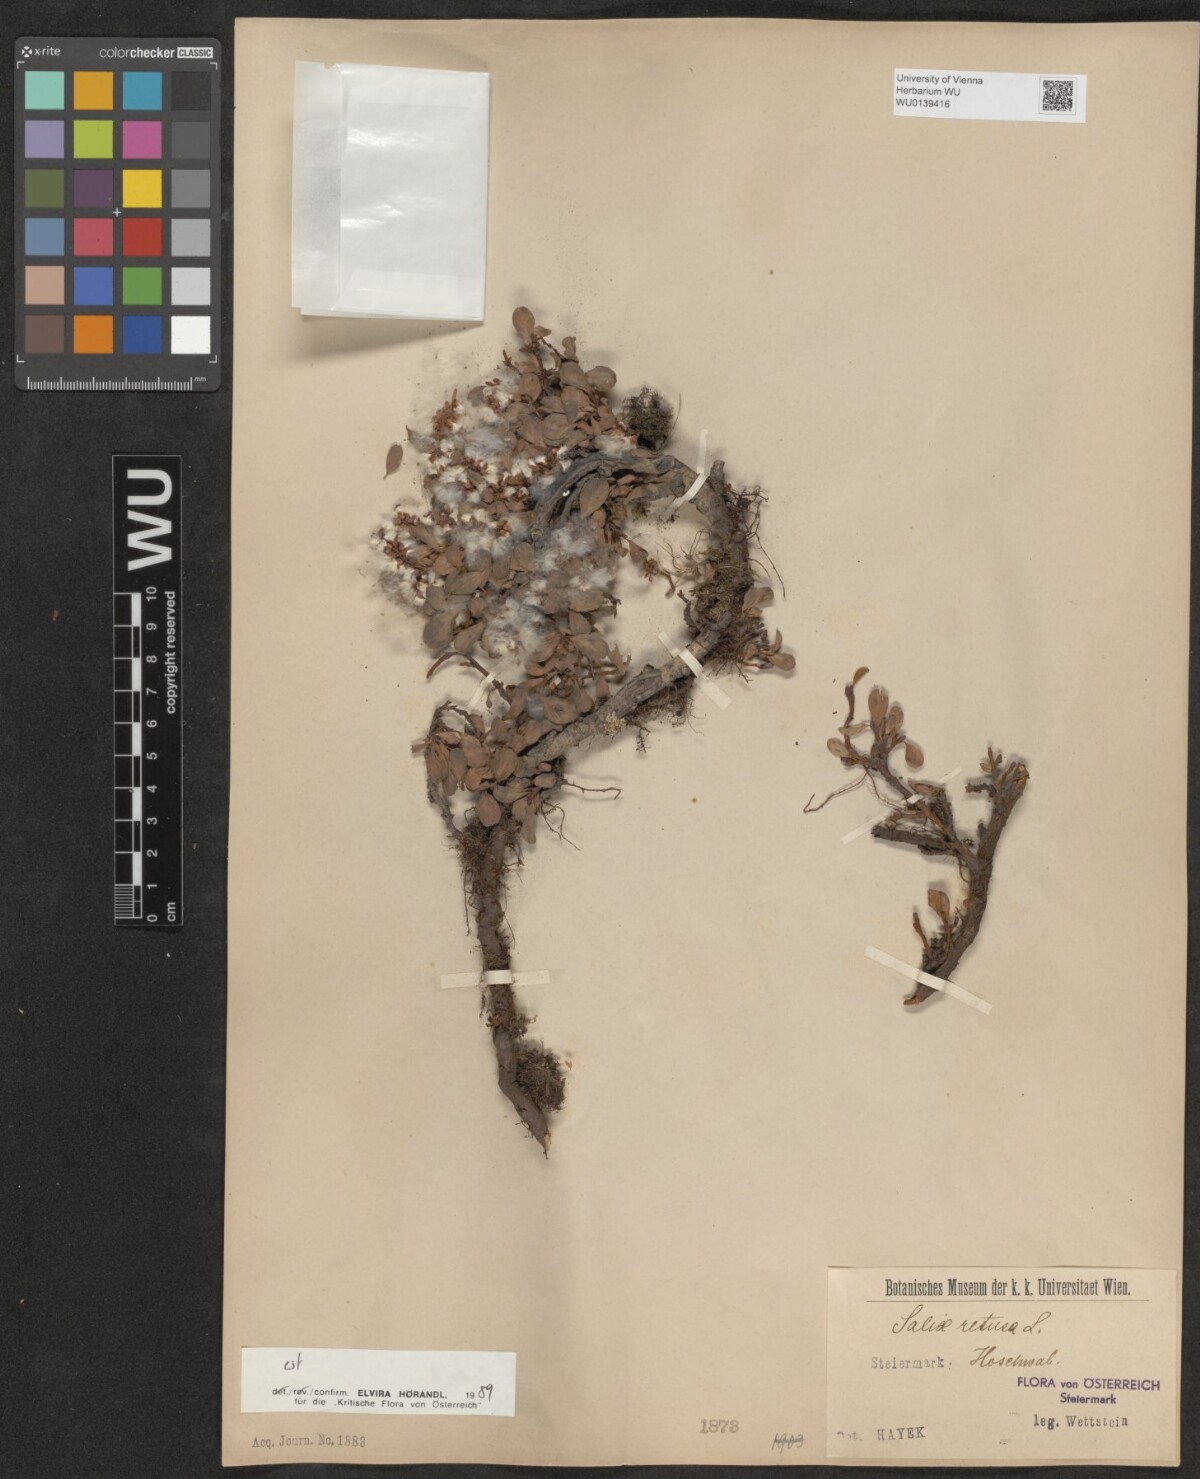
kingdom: Plantae
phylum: Tracheophyta
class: Magnoliopsida
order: Malpighiales
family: Salicaceae
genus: Salix
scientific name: Salix retusa
